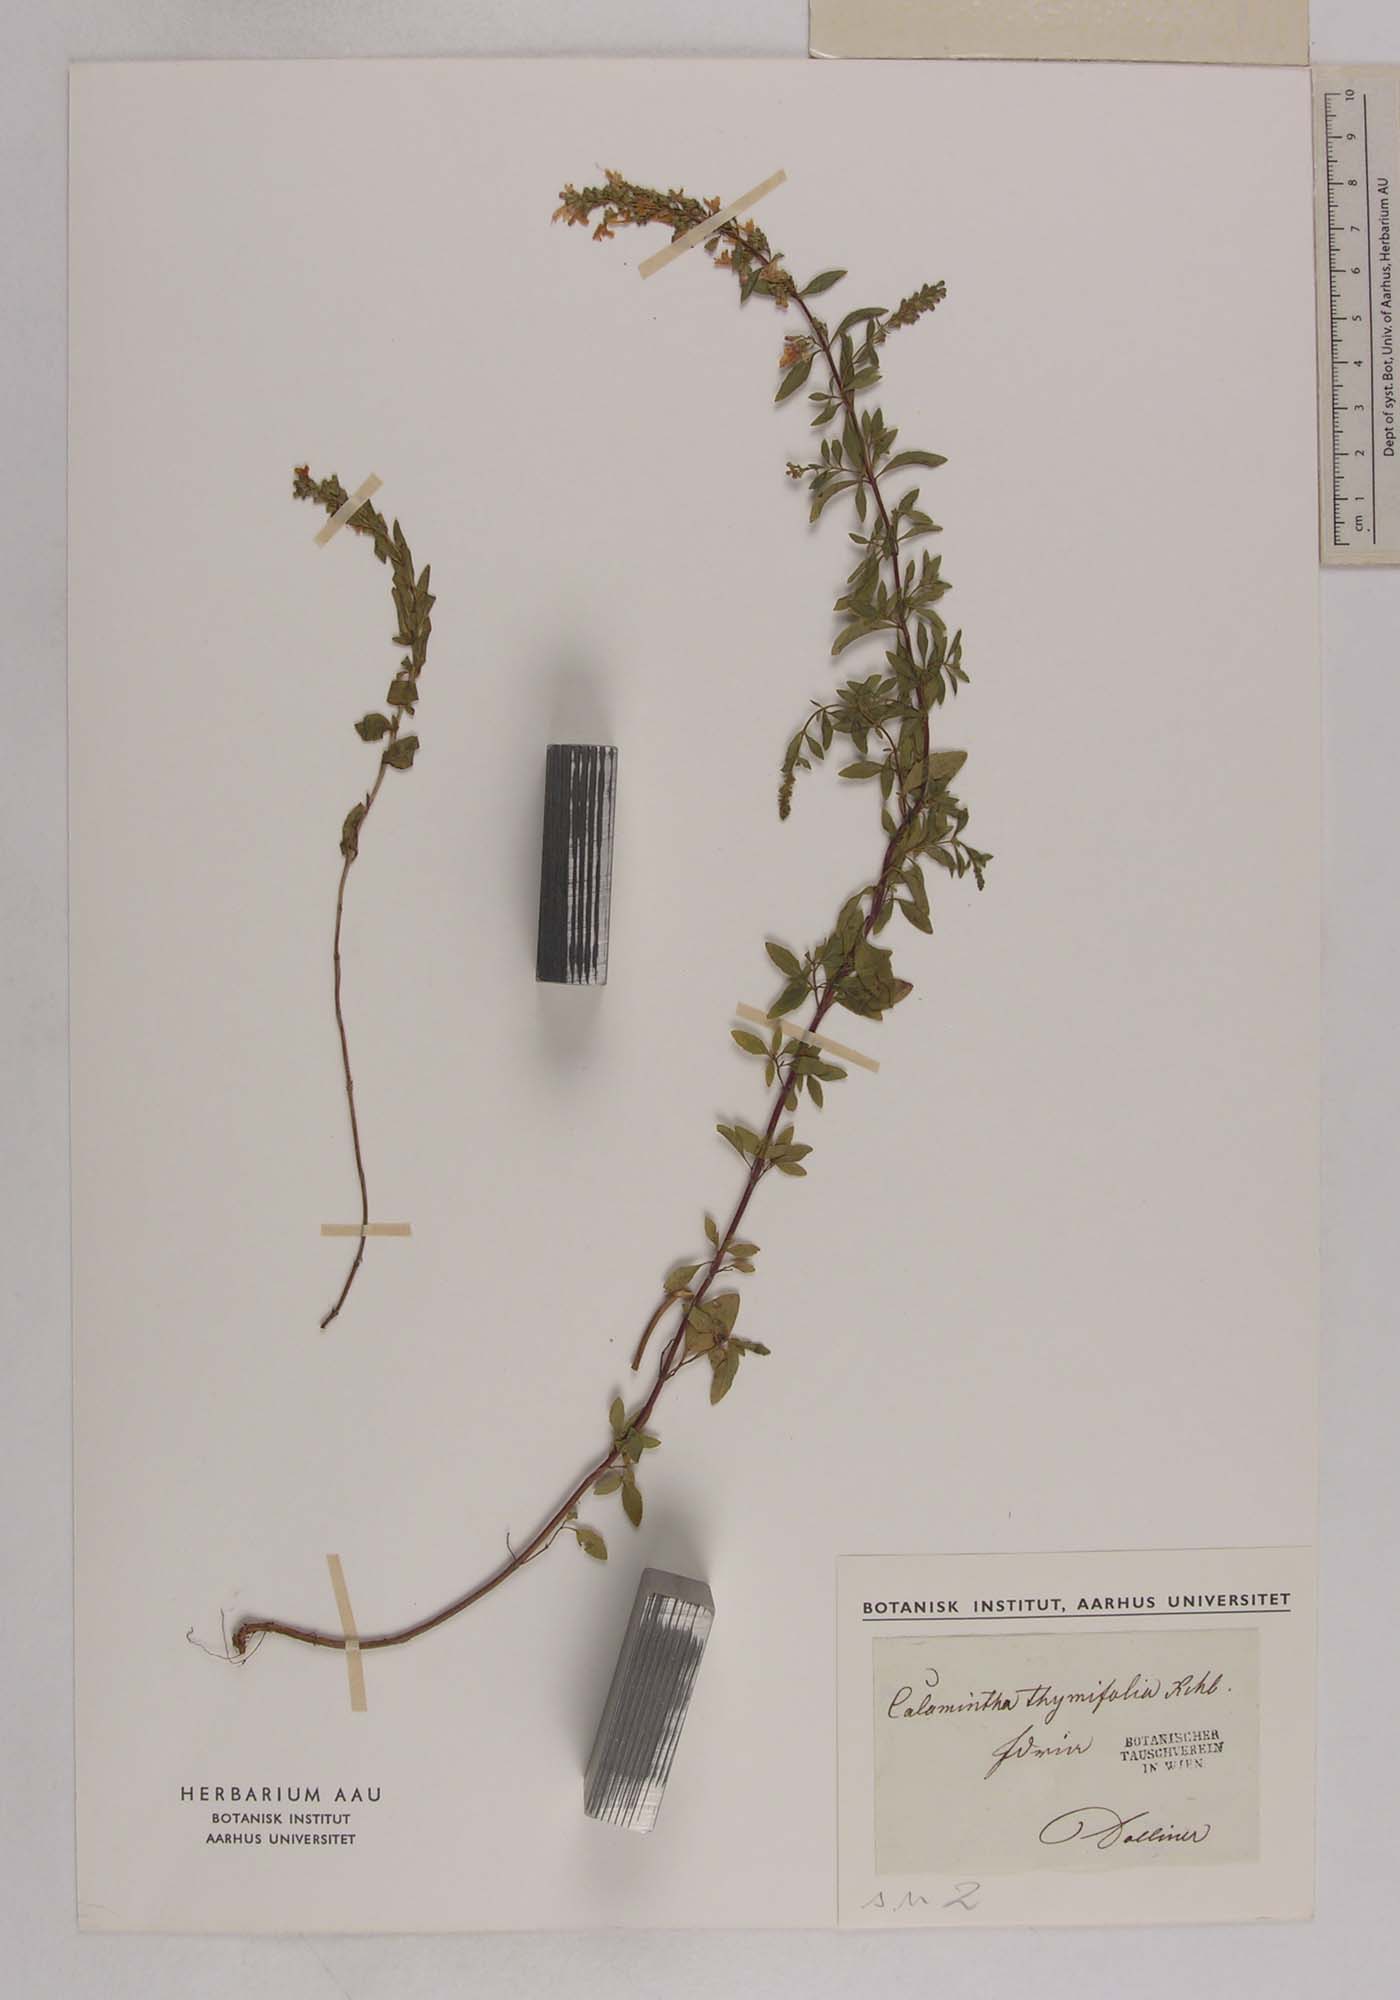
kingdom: Plantae
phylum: Tracheophyta
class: Magnoliopsida
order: Lamiales
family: Lamiaceae
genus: Clinopodium
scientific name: Clinopodium album
